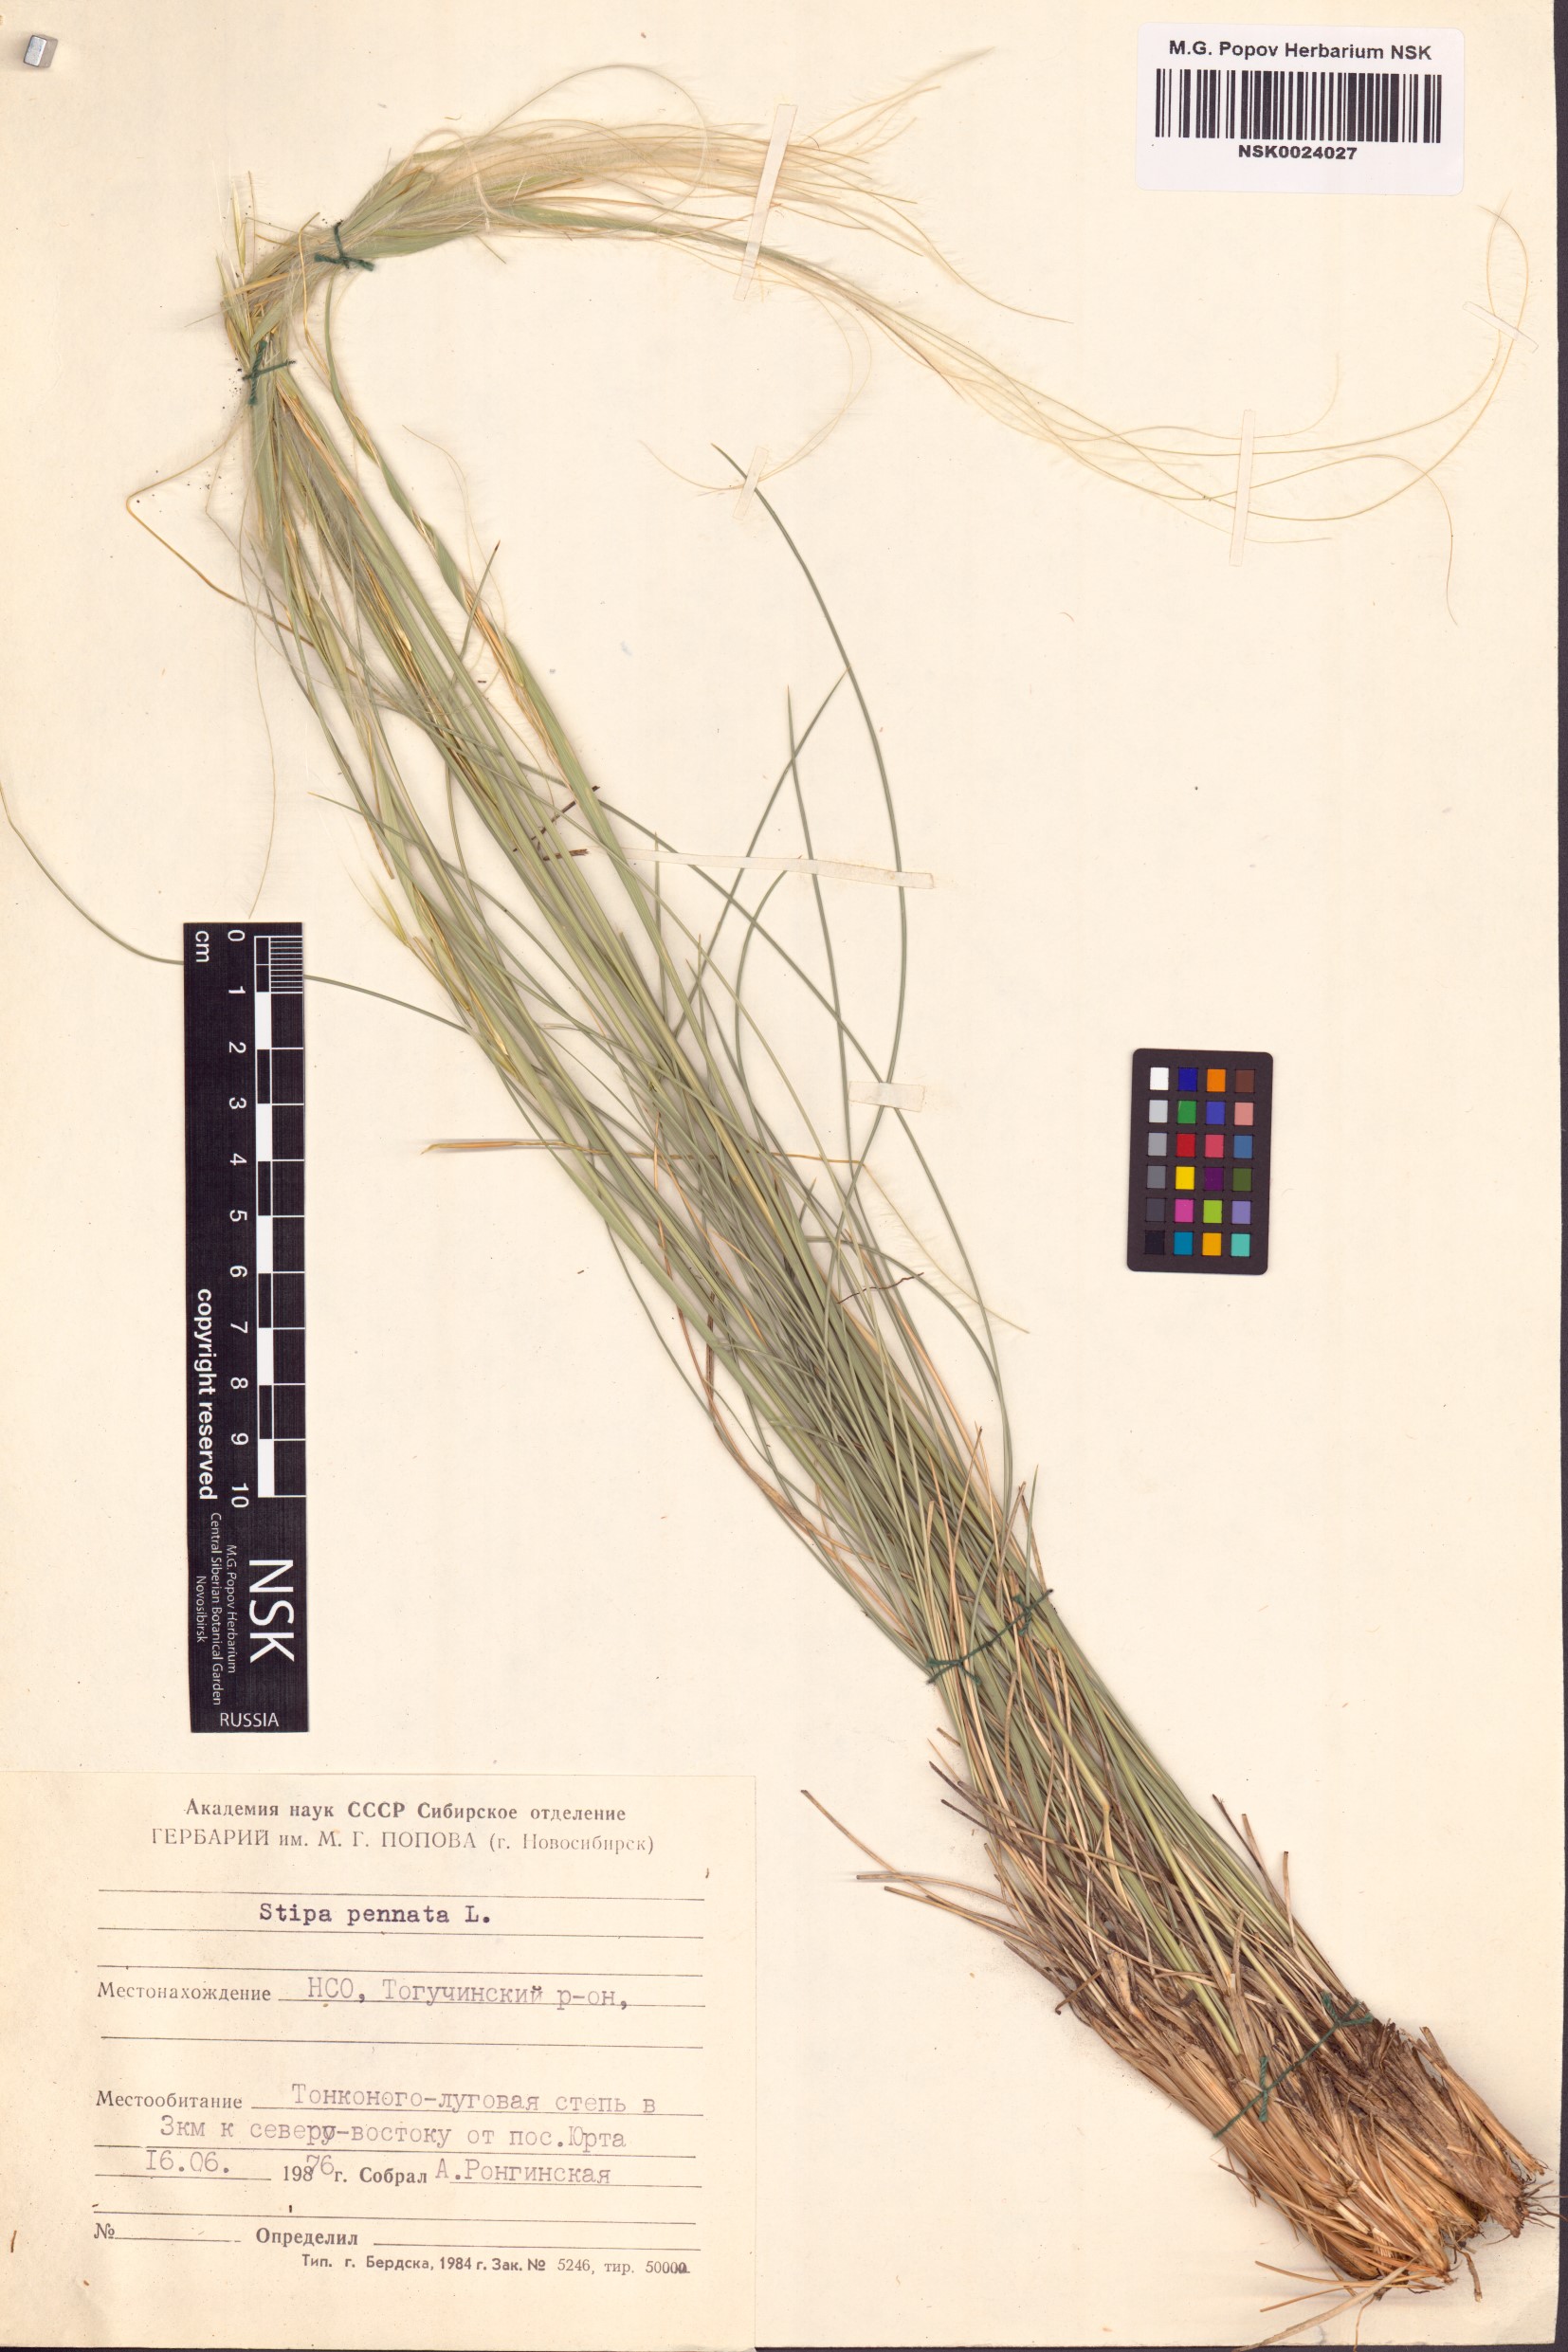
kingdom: Plantae
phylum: Tracheophyta
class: Liliopsida
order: Poales
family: Poaceae
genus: Stipa
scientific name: Stipa pennata
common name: European feather grass
